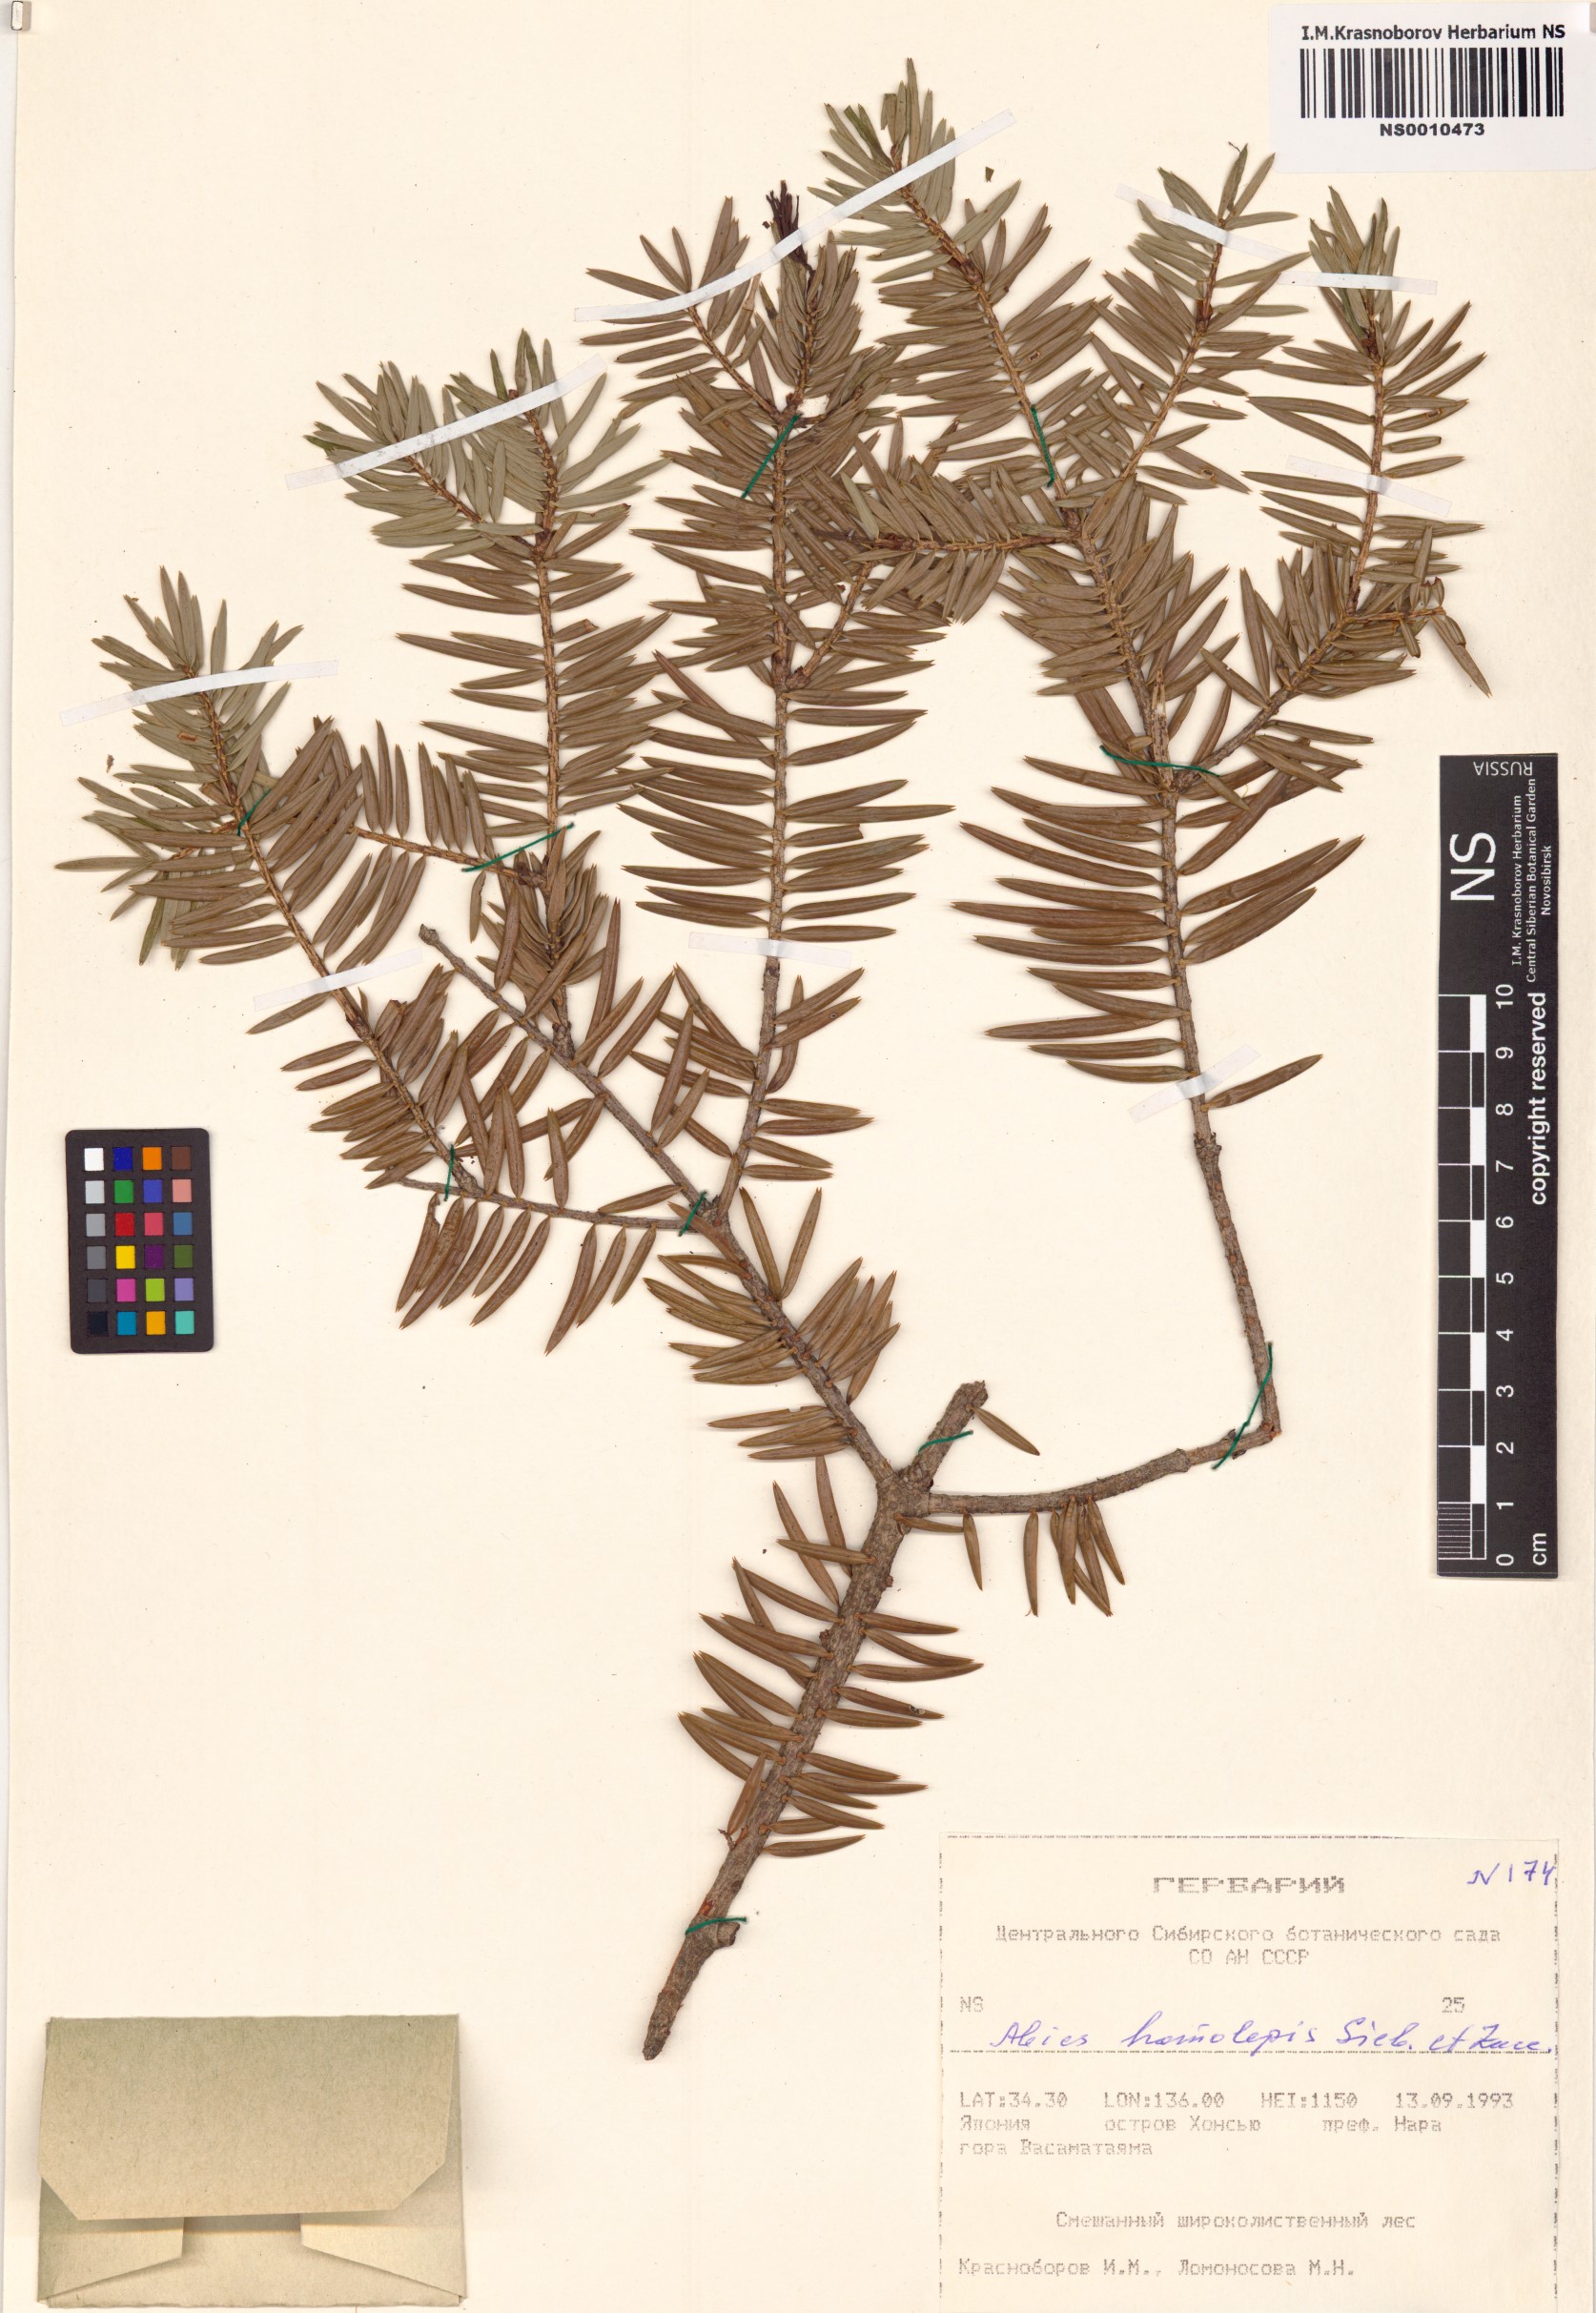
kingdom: Plantae
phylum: Tracheophyta
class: Pinopsida
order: Pinales
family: Pinaceae
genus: Abies
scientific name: Abies homolepis
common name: Nikko fir
